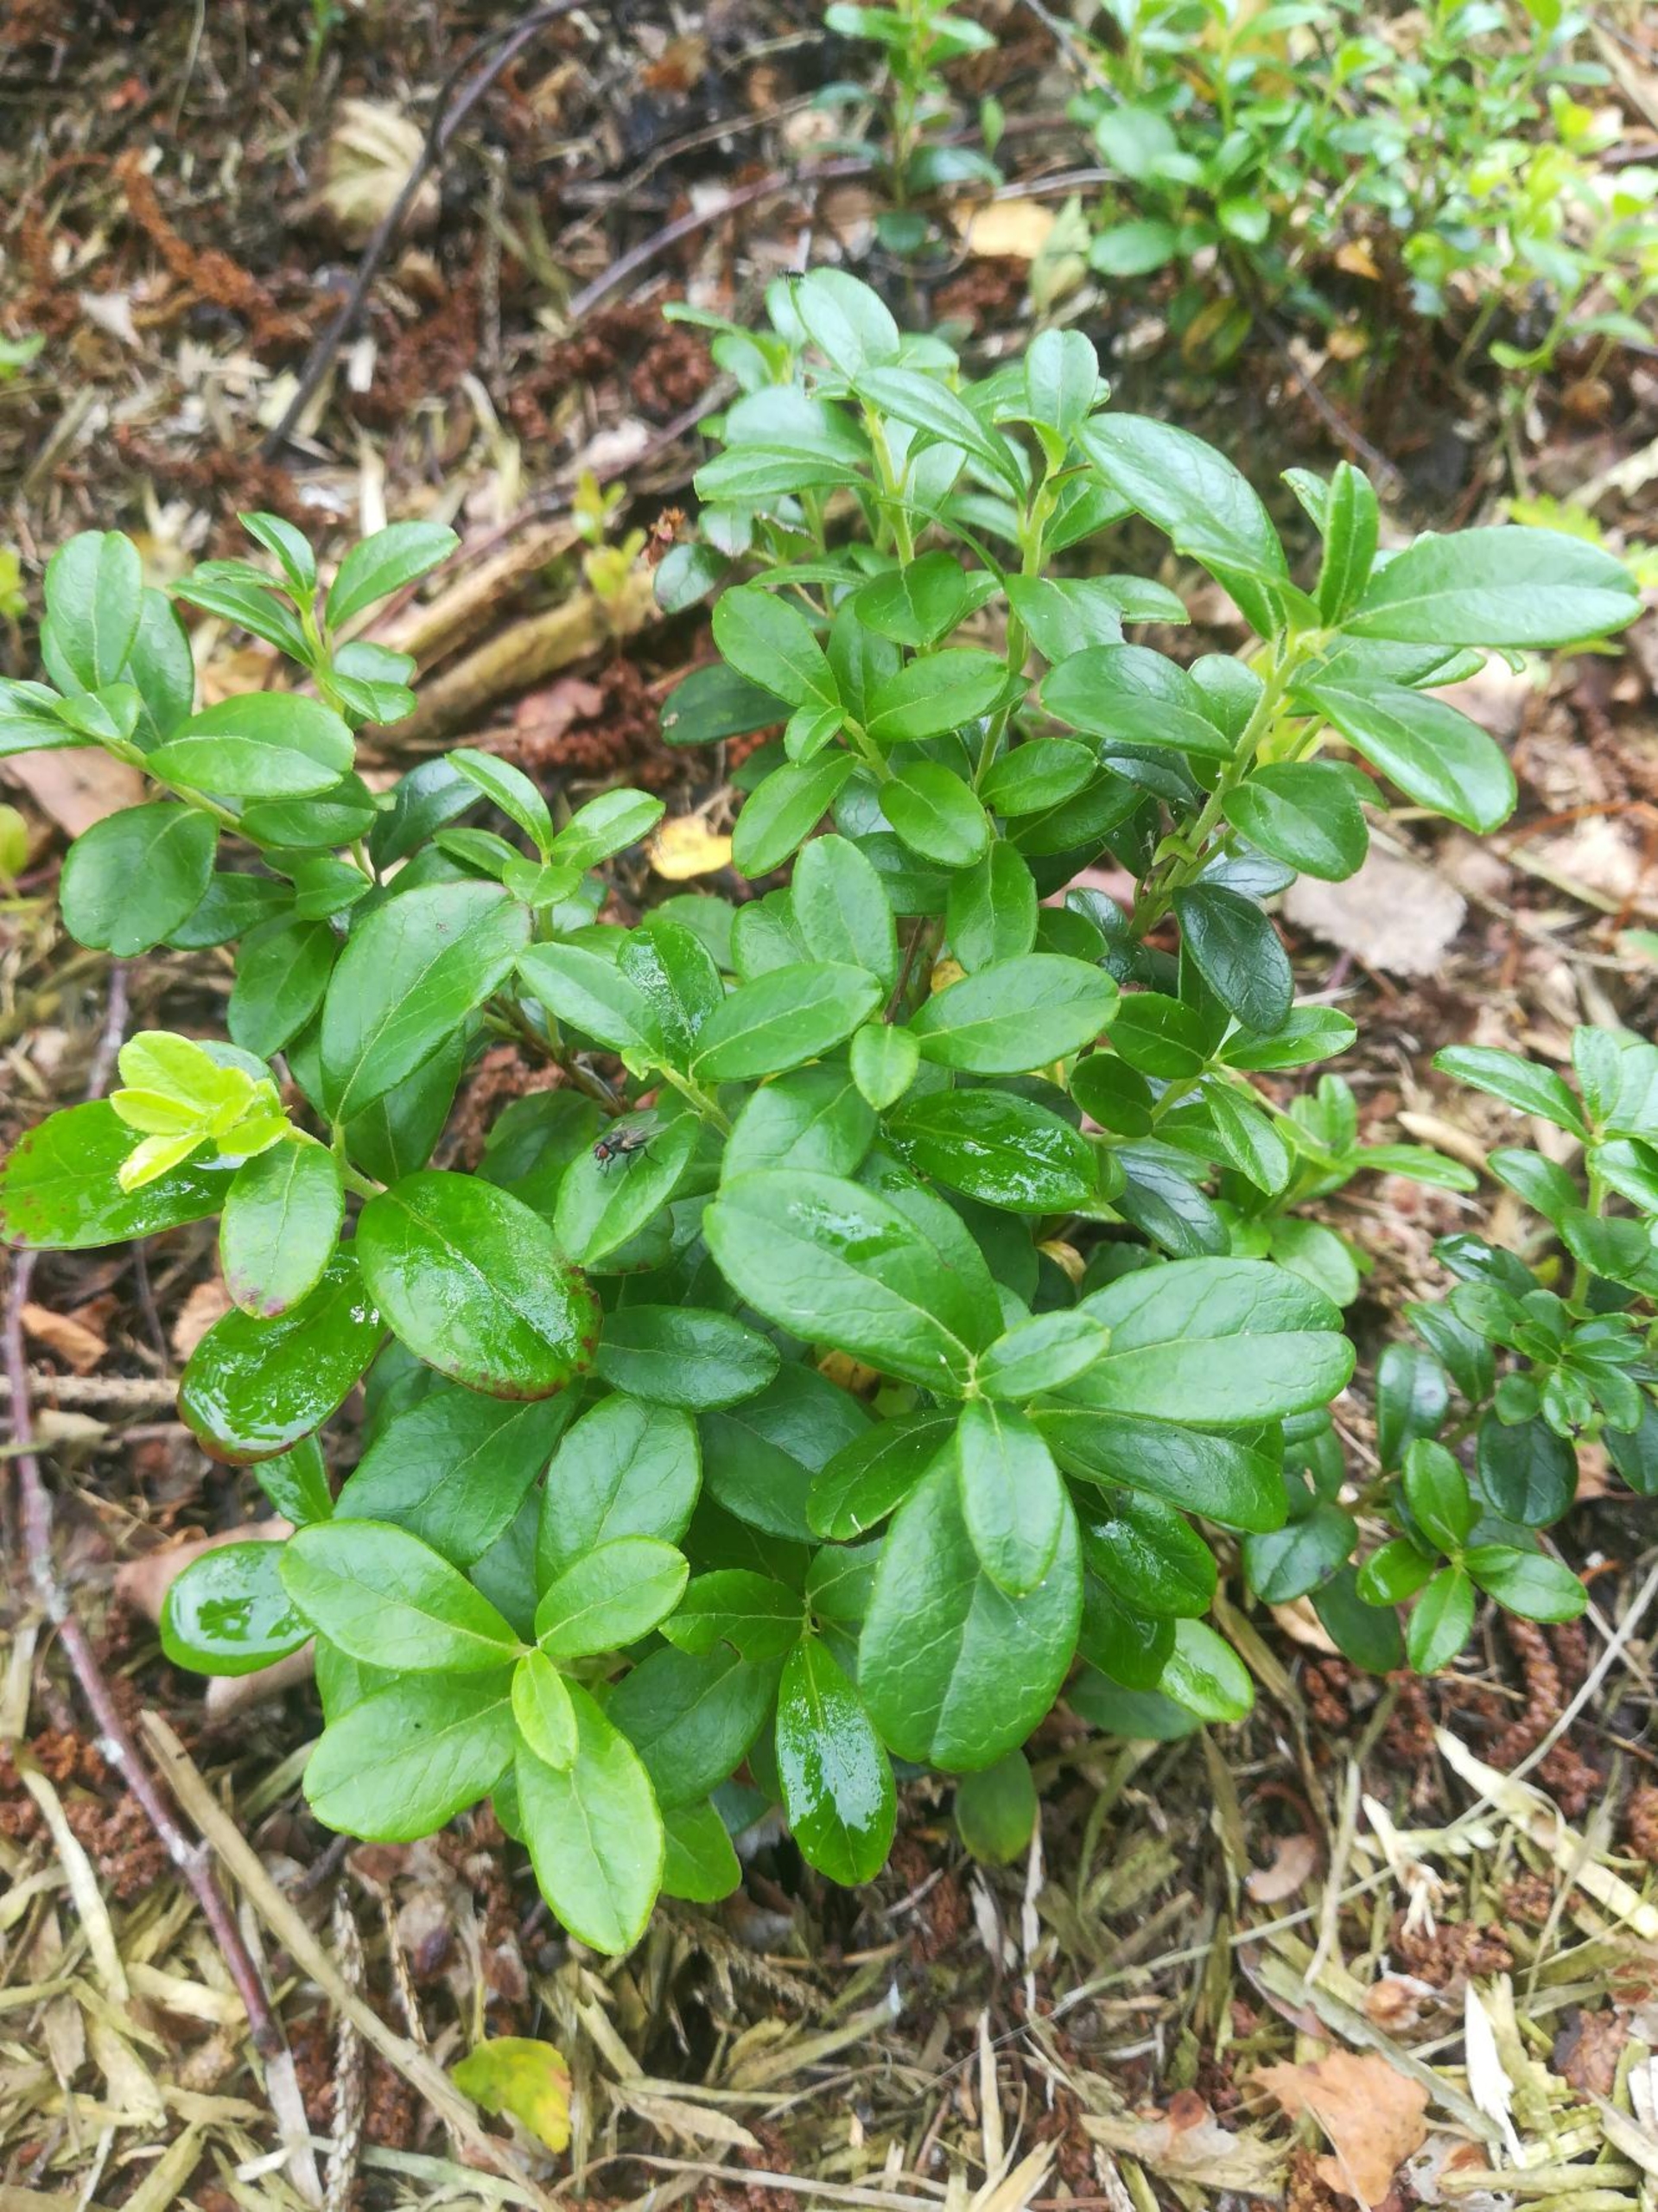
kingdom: Plantae
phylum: Tracheophyta
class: Magnoliopsida
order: Ericales
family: Ericaceae
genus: Vaccinium
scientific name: Vaccinium vitis-idaea
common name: Tyttebær
